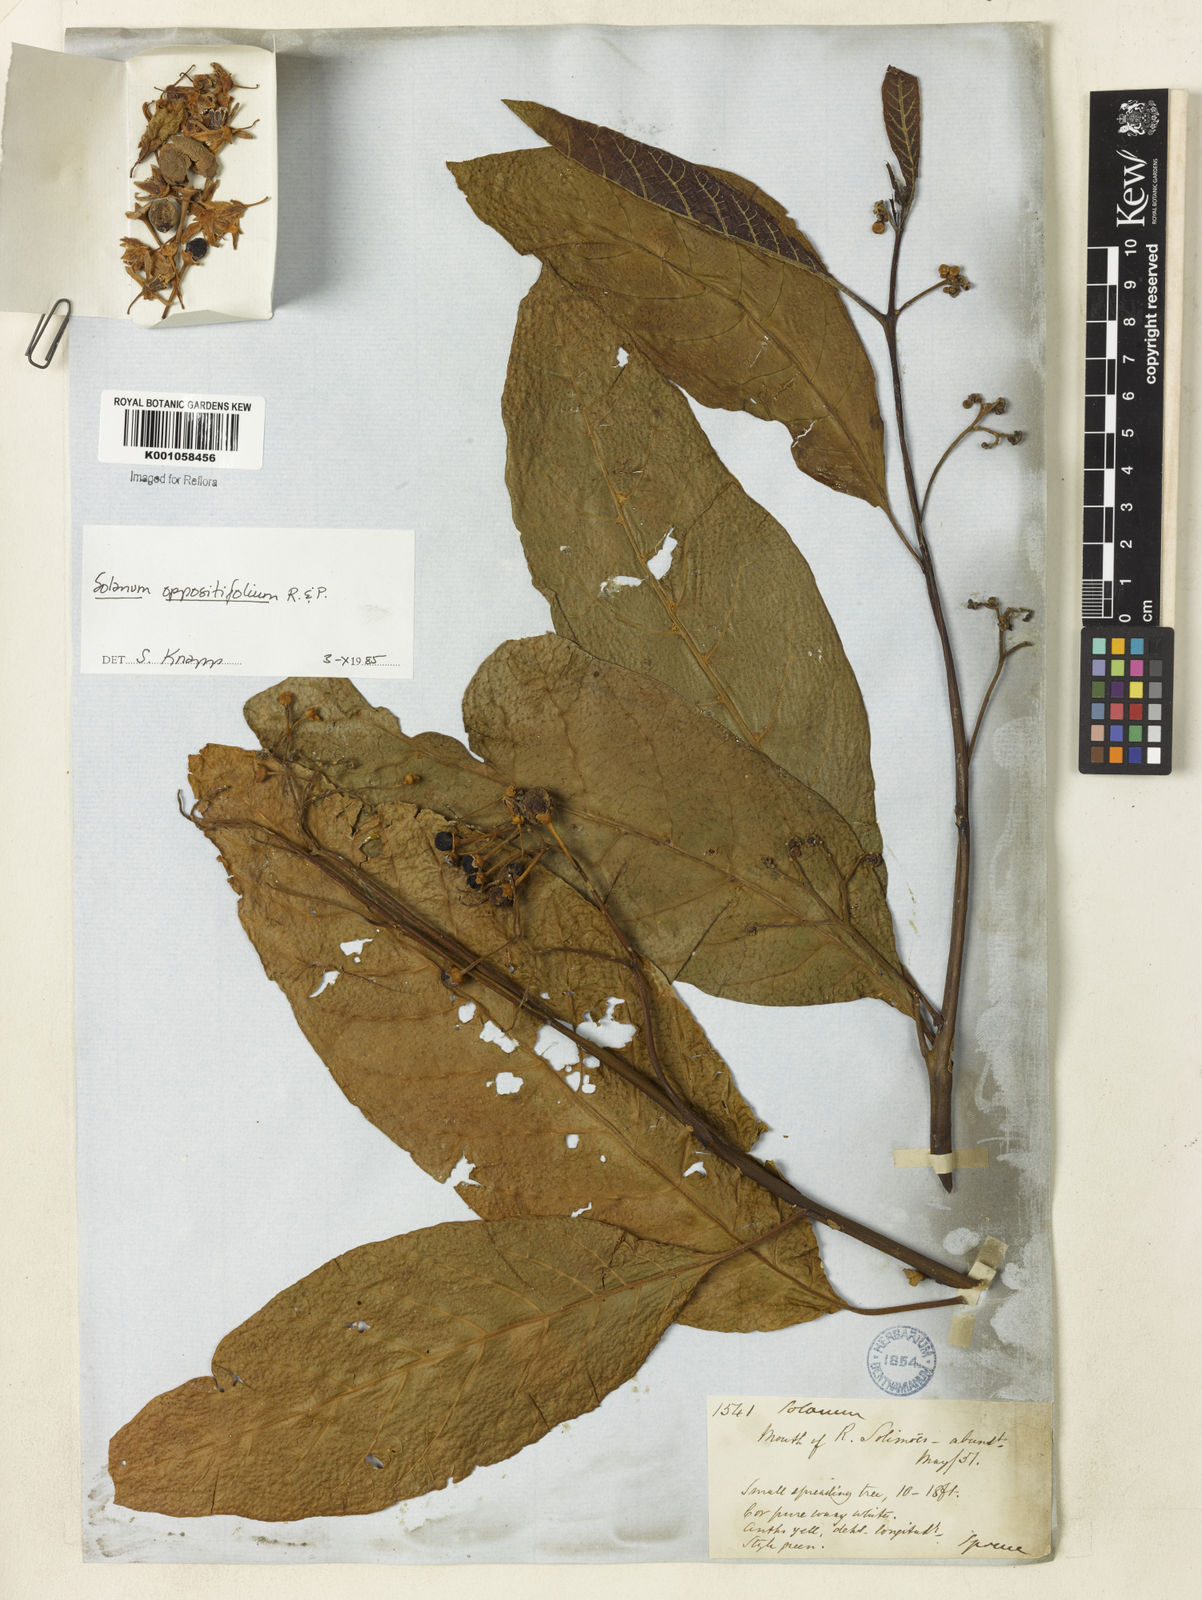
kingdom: Plantae
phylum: Tracheophyta
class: Magnoliopsida
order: Solanales
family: Solanaceae
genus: Solanum
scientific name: Solanum oppositifolium
